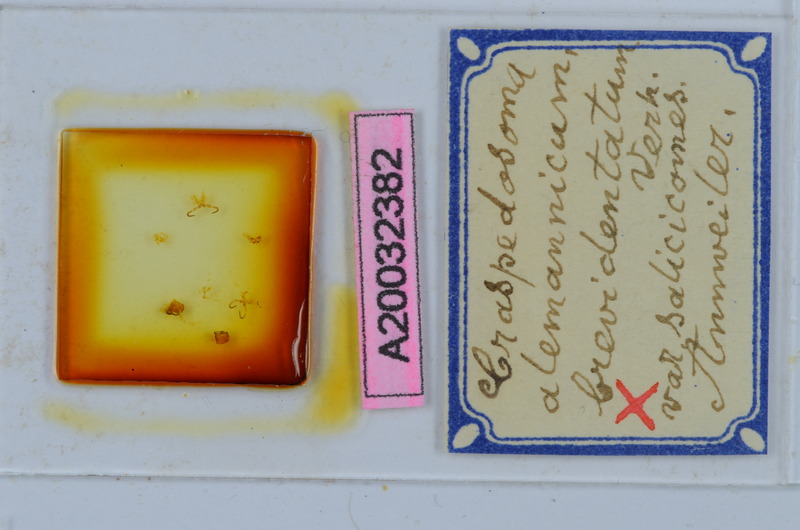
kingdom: Animalia
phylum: Arthropoda
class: Diplopoda
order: Chordeumatida
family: Craspedosomatidae
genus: Craspedosoma
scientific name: Craspedosoma rawlinsii
